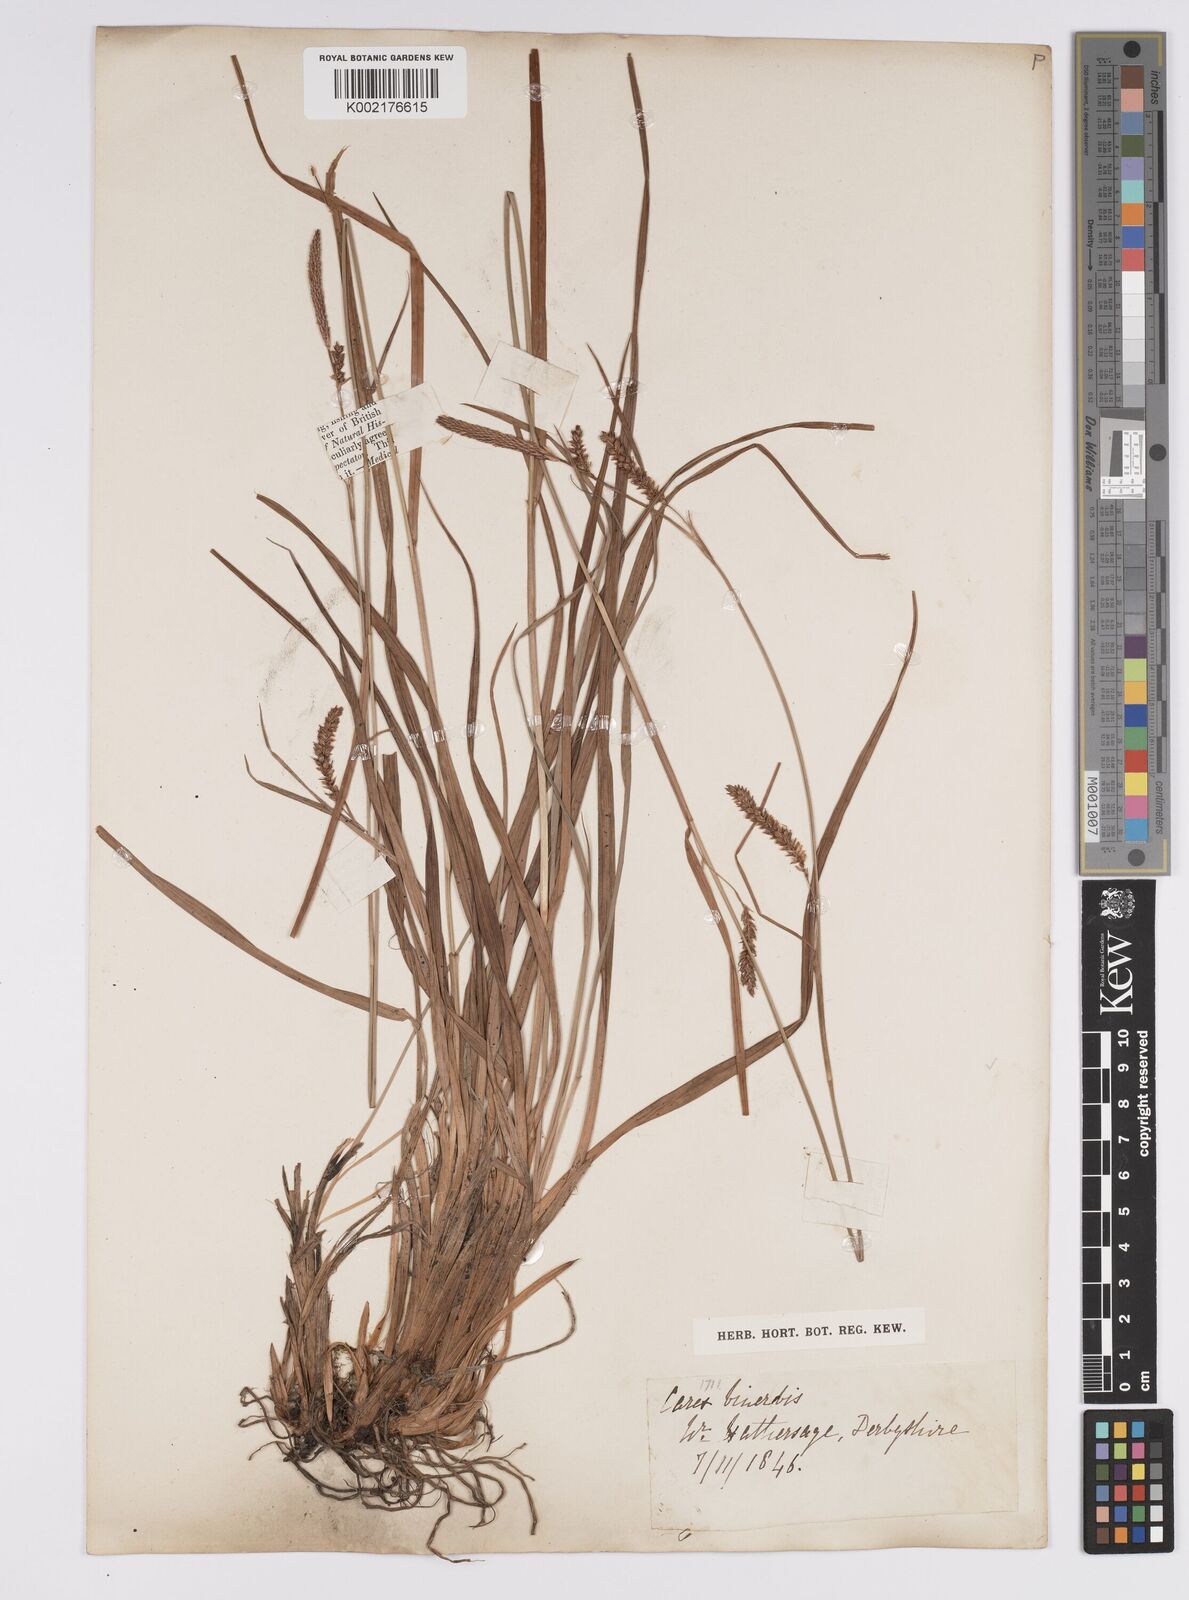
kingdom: Plantae
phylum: Tracheophyta
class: Liliopsida
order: Poales
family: Cyperaceae
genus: Carex
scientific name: Carex binervis
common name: Green-ribbed sedge
